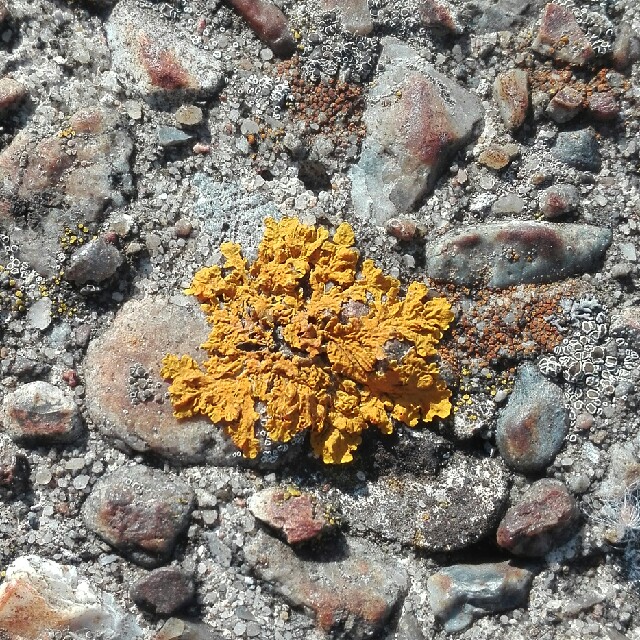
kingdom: Fungi
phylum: Ascomycota
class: Lecanoromycetes
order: Teloschistales
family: Teloschistaceae
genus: Xanthoria
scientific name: Xanthoria
